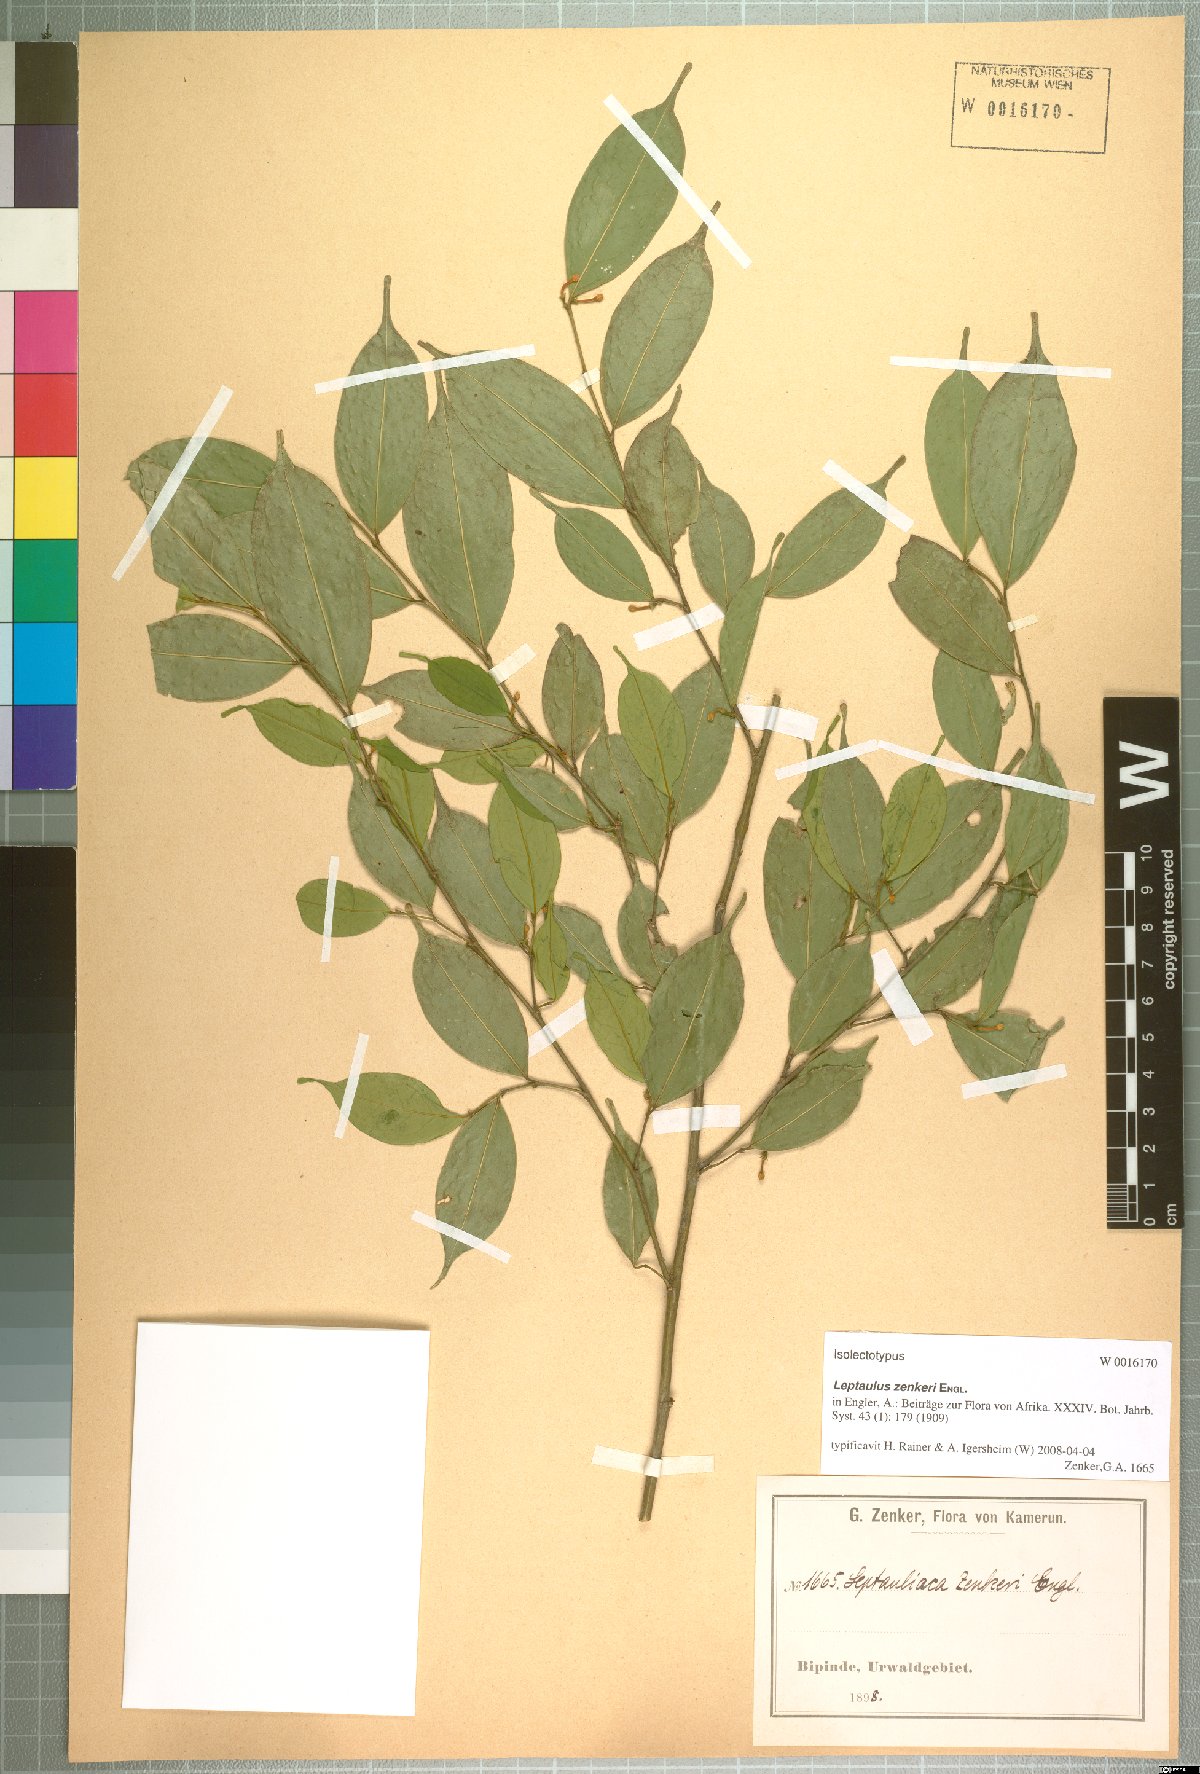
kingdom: Plantae
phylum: Tracheophyta
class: Magnoliopsida
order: Cardiopteridales
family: Cardiopteridaceae
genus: Leptaulus
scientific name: Leptaulus congolanus
